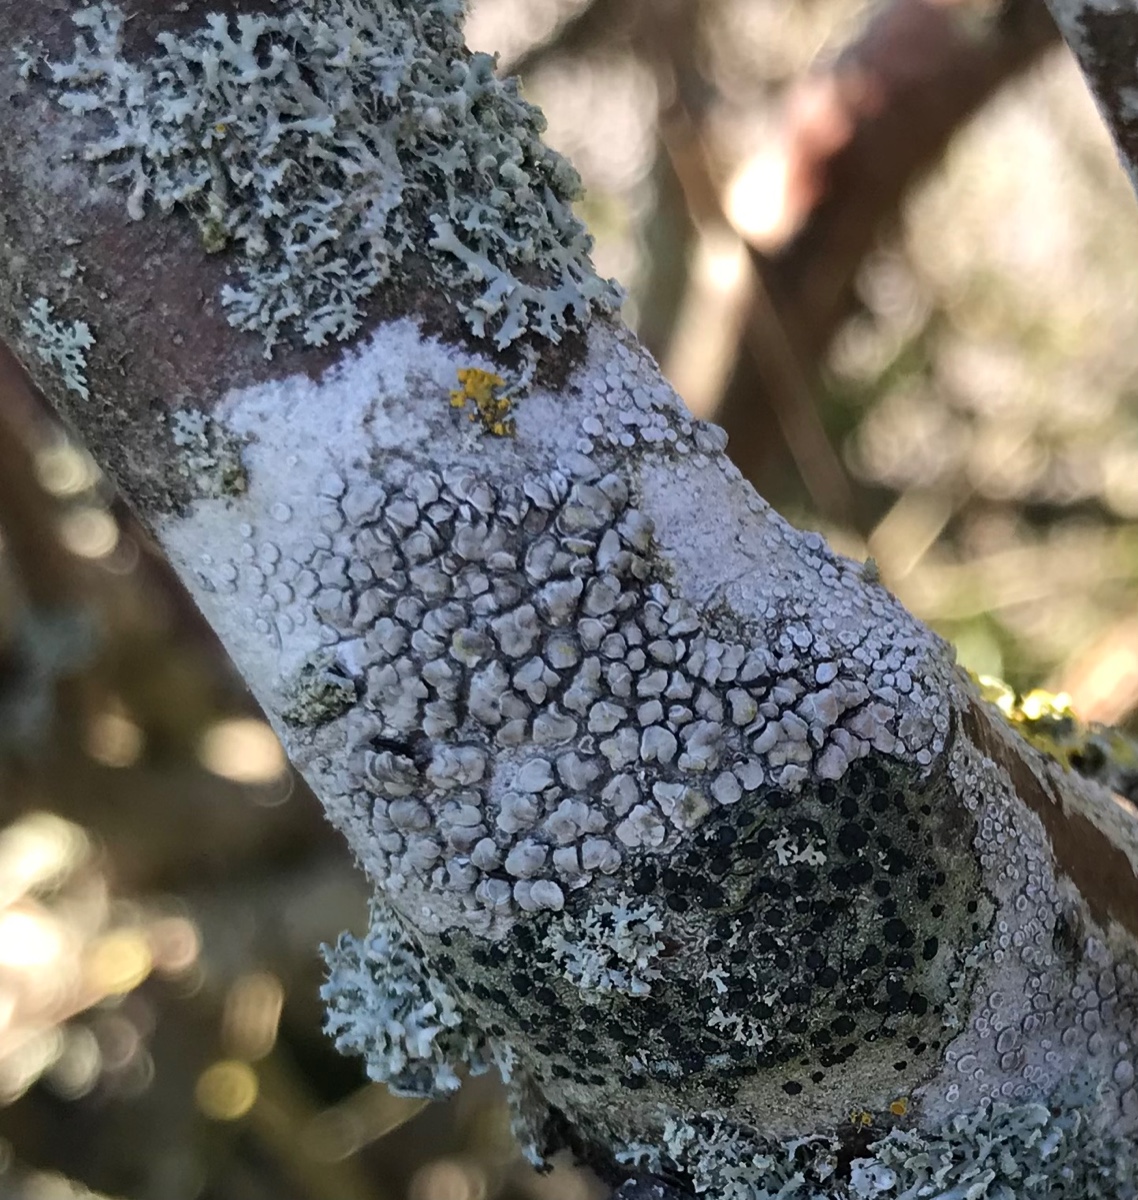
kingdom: Fungi
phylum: Ascomycota
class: Lecanoromycetes
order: Lecanorales
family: Lecanoraceae
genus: Glaucomaria
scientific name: Glaucomaria carpinea
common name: hviddugget kantskivelav
